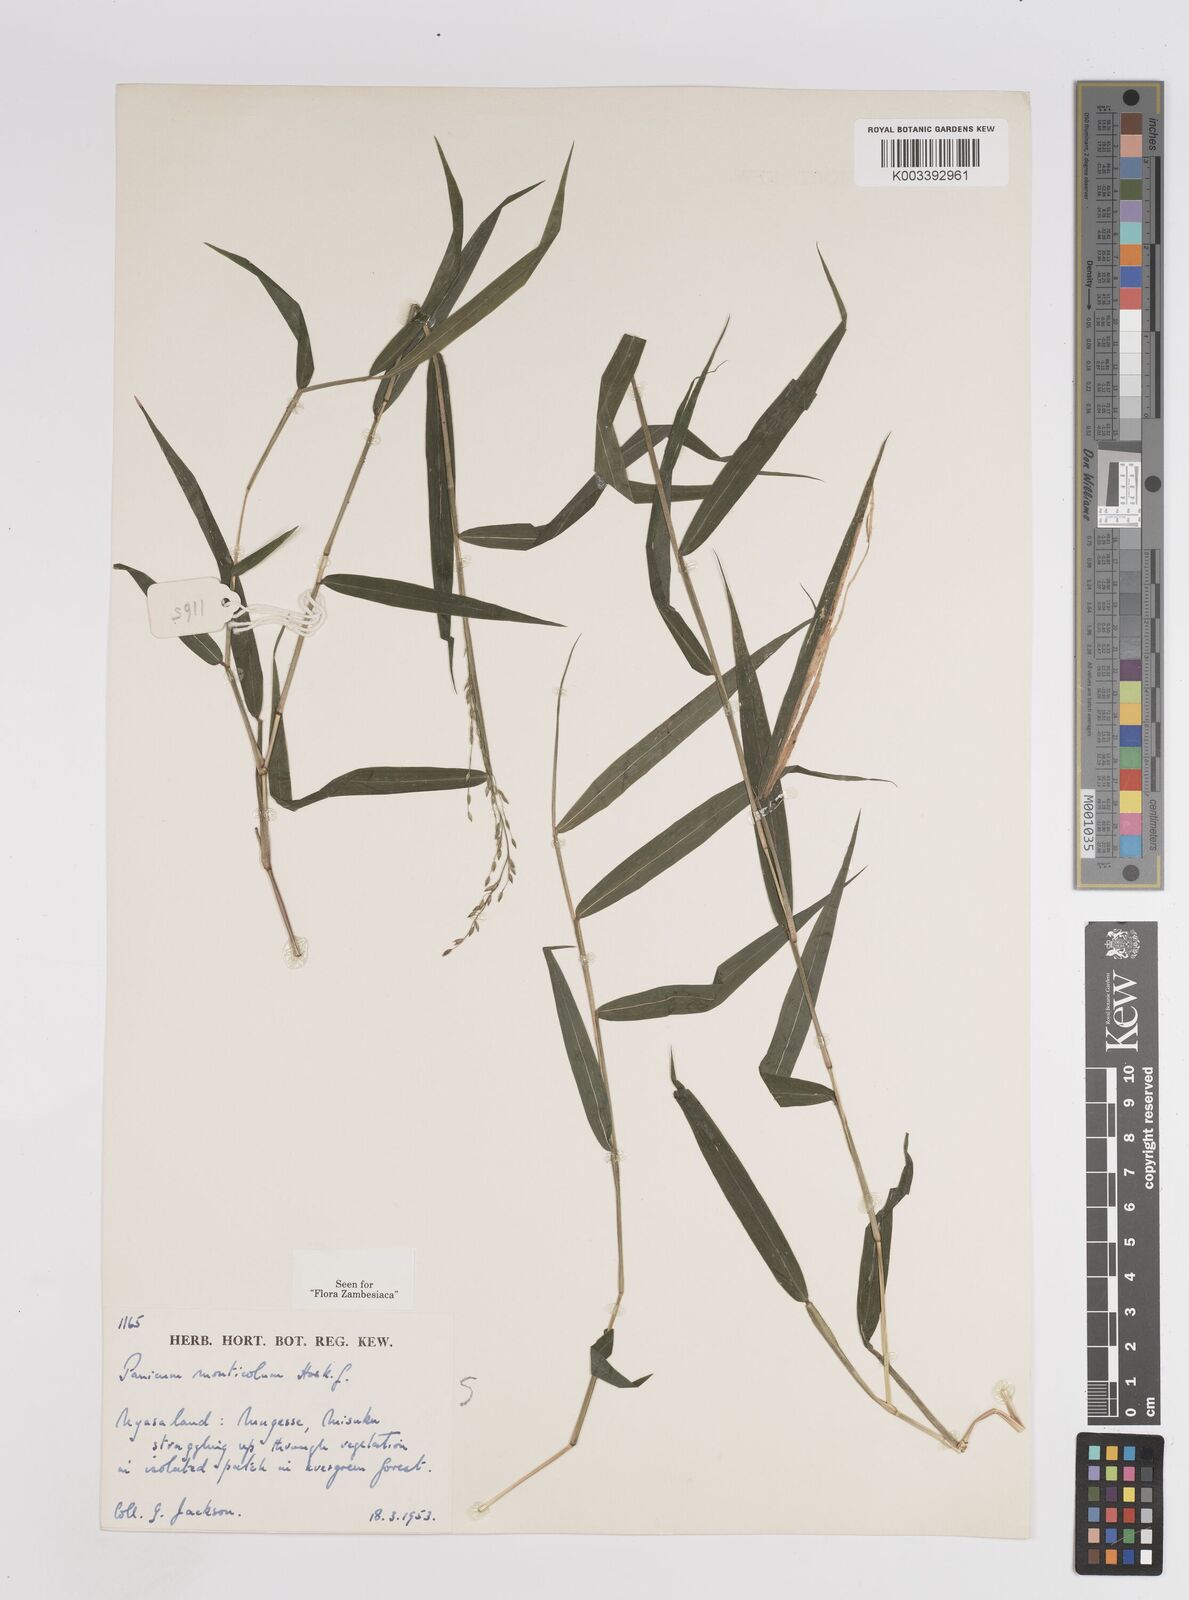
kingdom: Plantae
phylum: Tracheophyta
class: Liliopsida
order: Poales
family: Poaceae
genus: Panicum
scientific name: Panicum monticola
